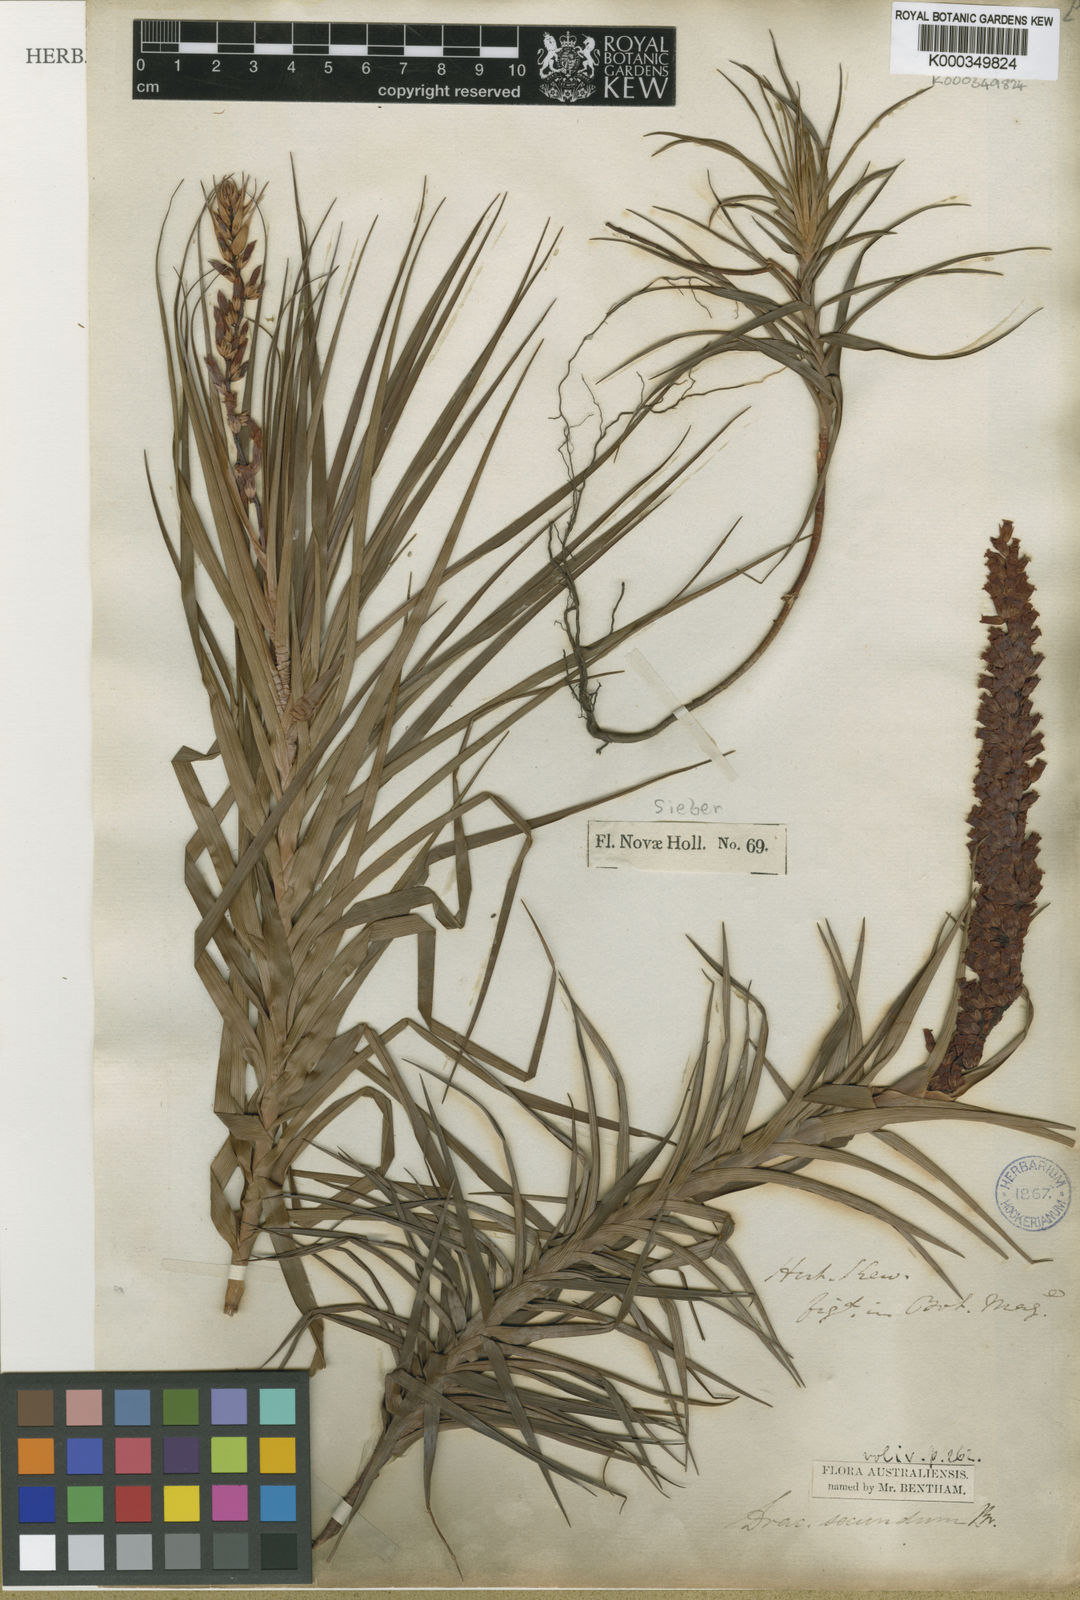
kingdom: Plantae
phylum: Tracheophyta
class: Magnoliopsida
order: Ericales
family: Ericaceae
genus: Dracophyllum
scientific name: Dracophyllum secundum
